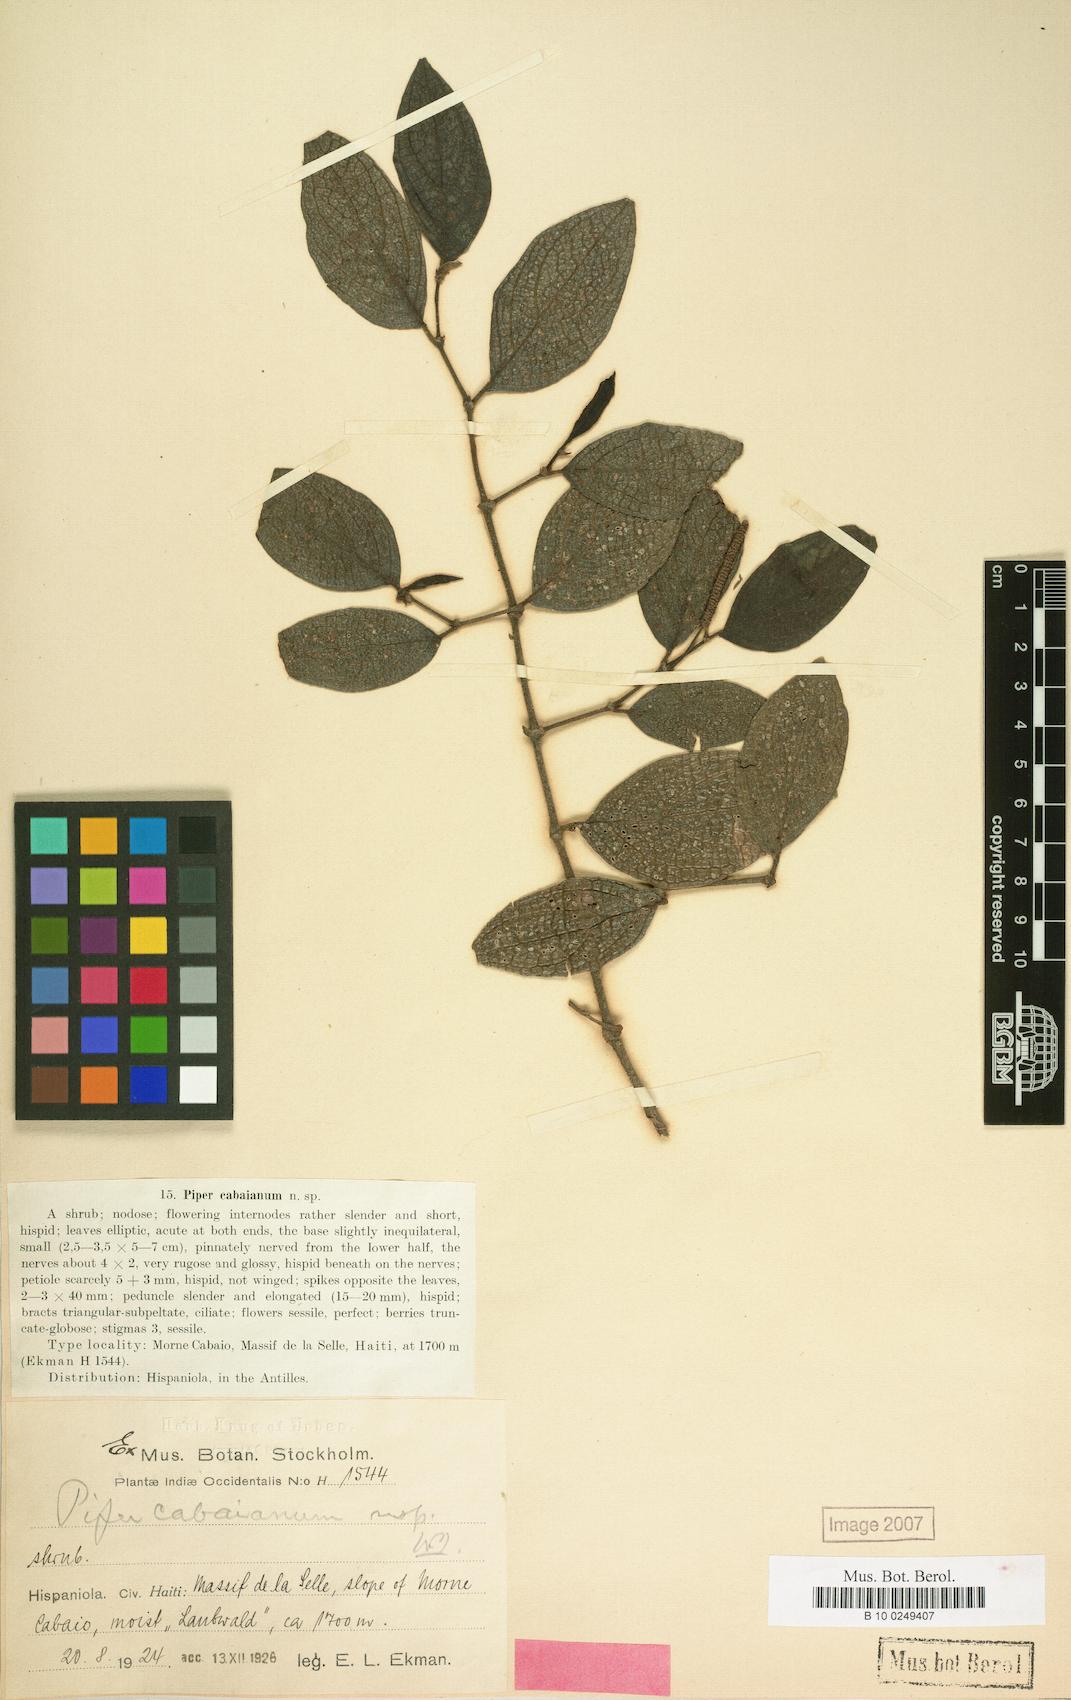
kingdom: Plantae
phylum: Tracheophyta
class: Magnoliopsida
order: Piperales
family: Piperaceae
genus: Piper
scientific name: Piper rugosum
